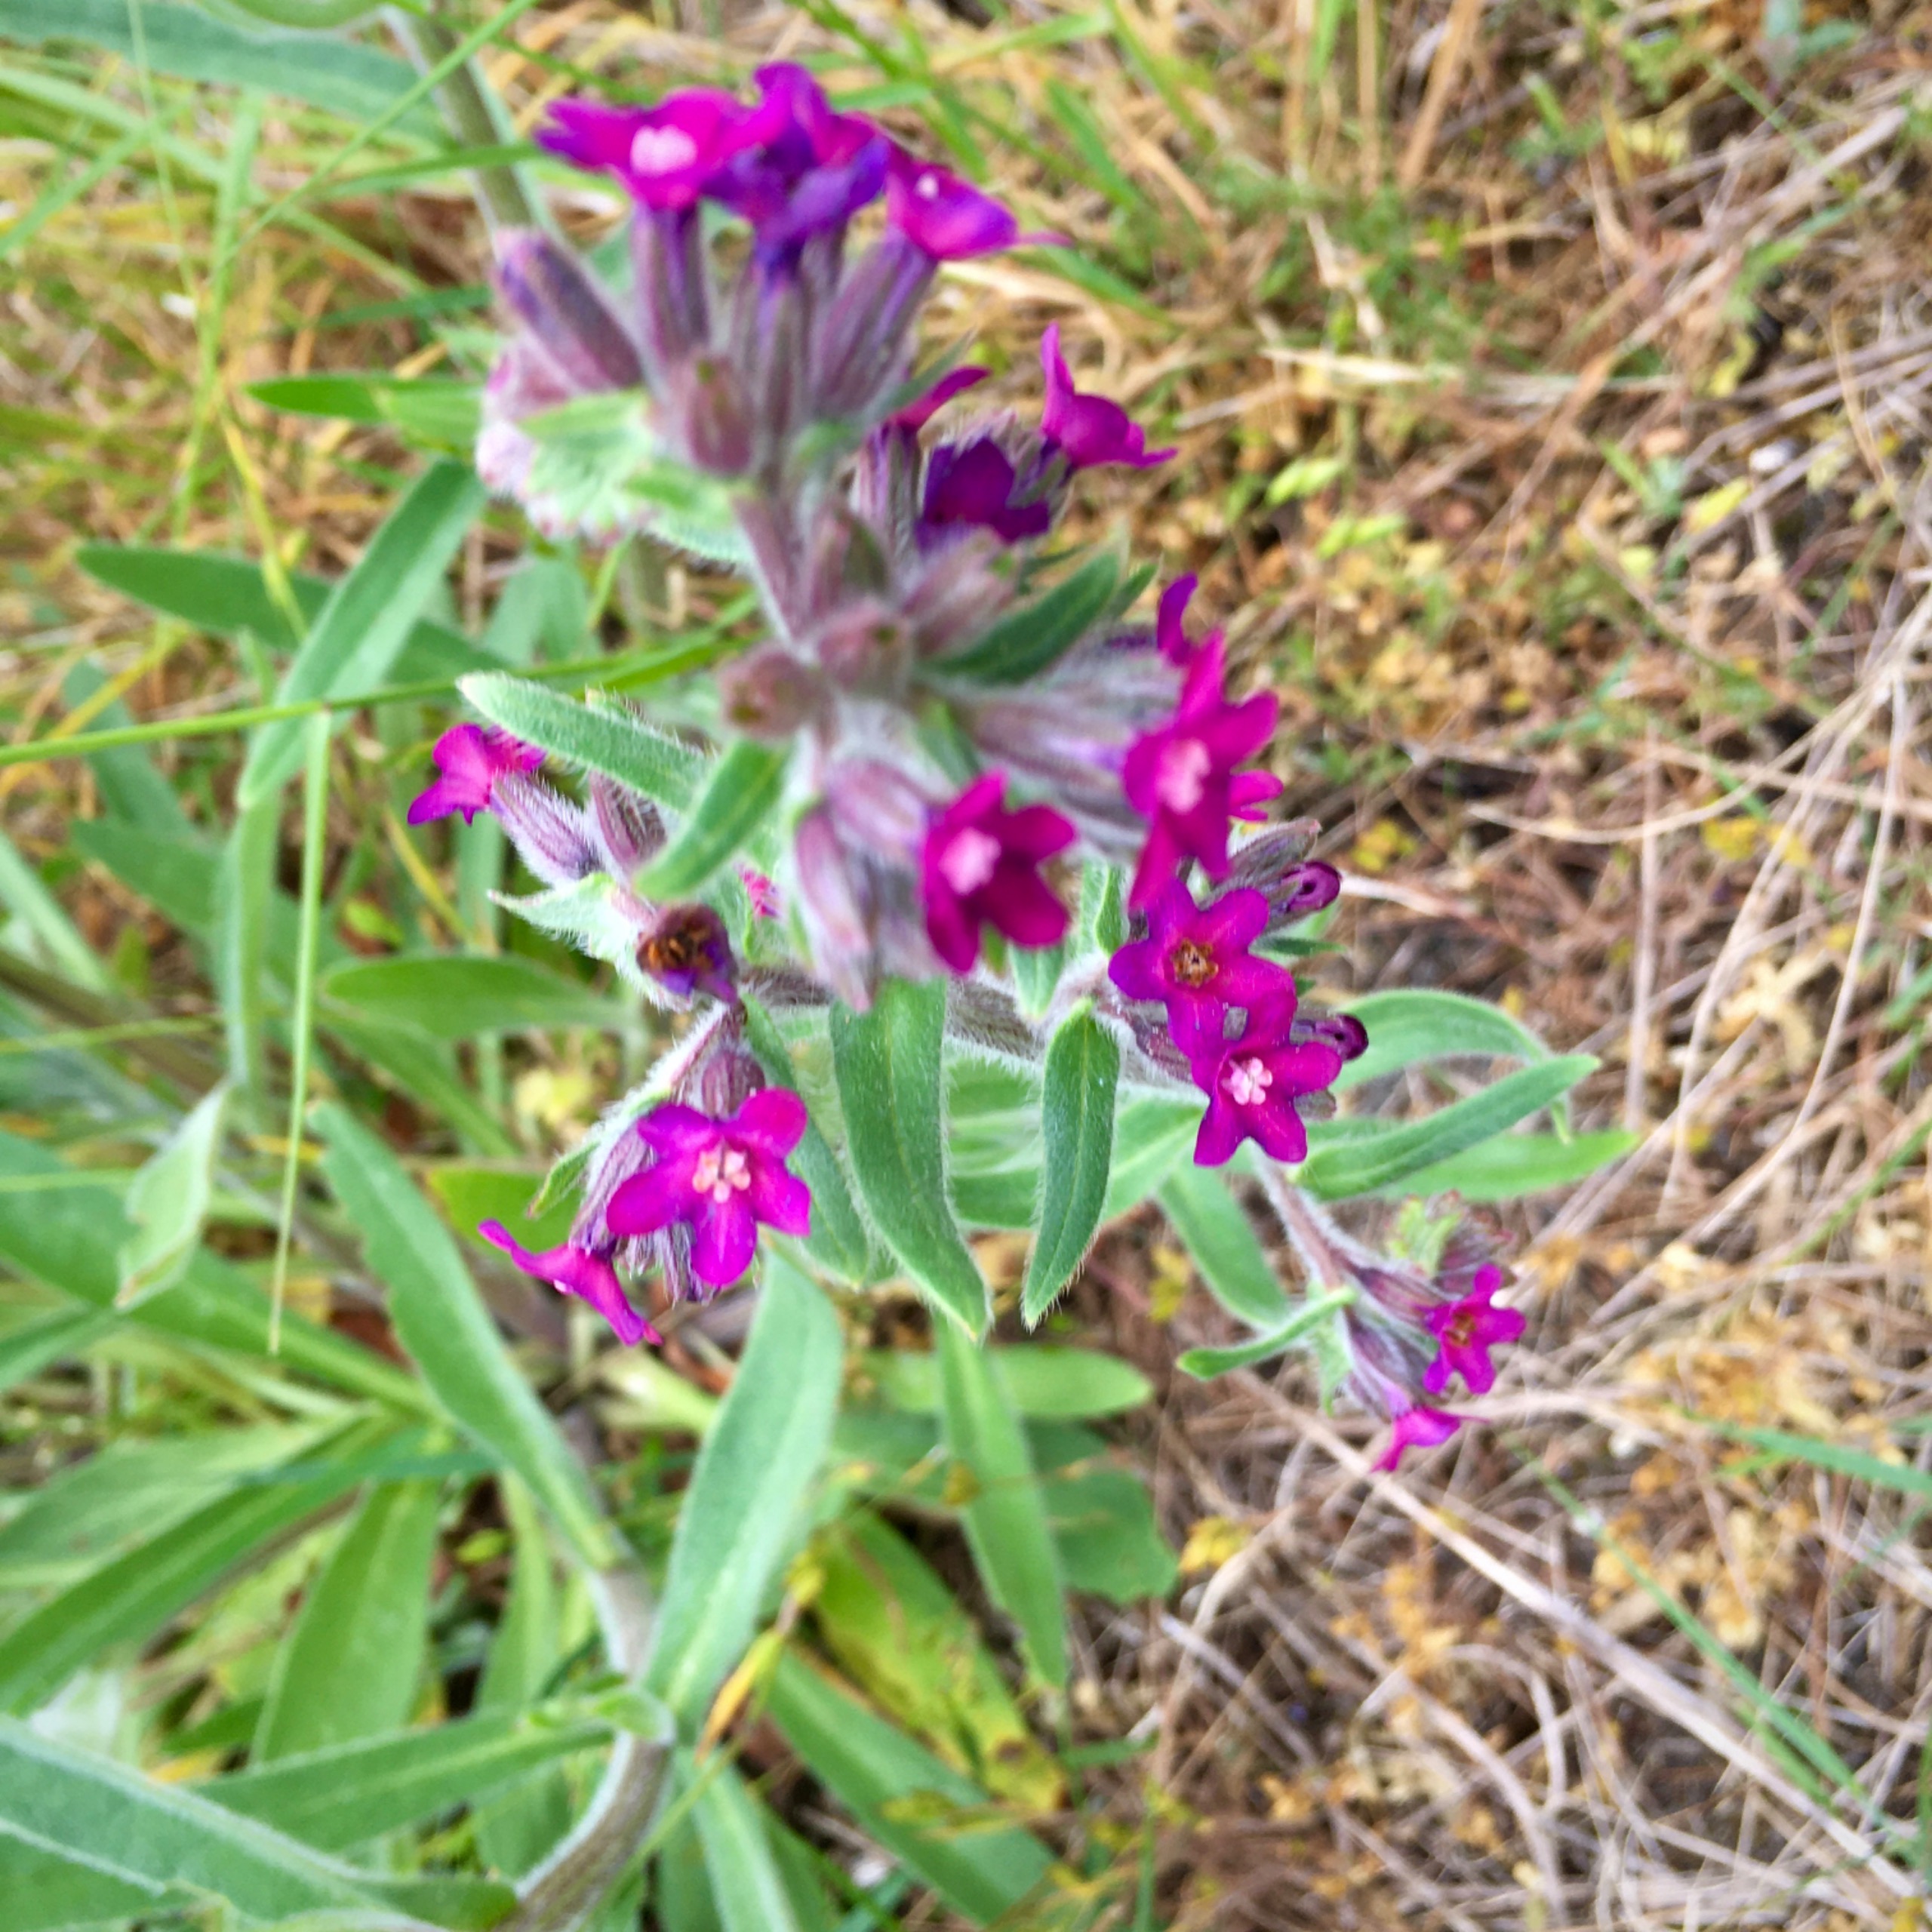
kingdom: Plantae
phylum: Tracheophyta
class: Magnoliopsida
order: Boraginales
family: Boraginaceae
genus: Anchusa
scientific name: Anchusa officinalis
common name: Læge-oksetunge
